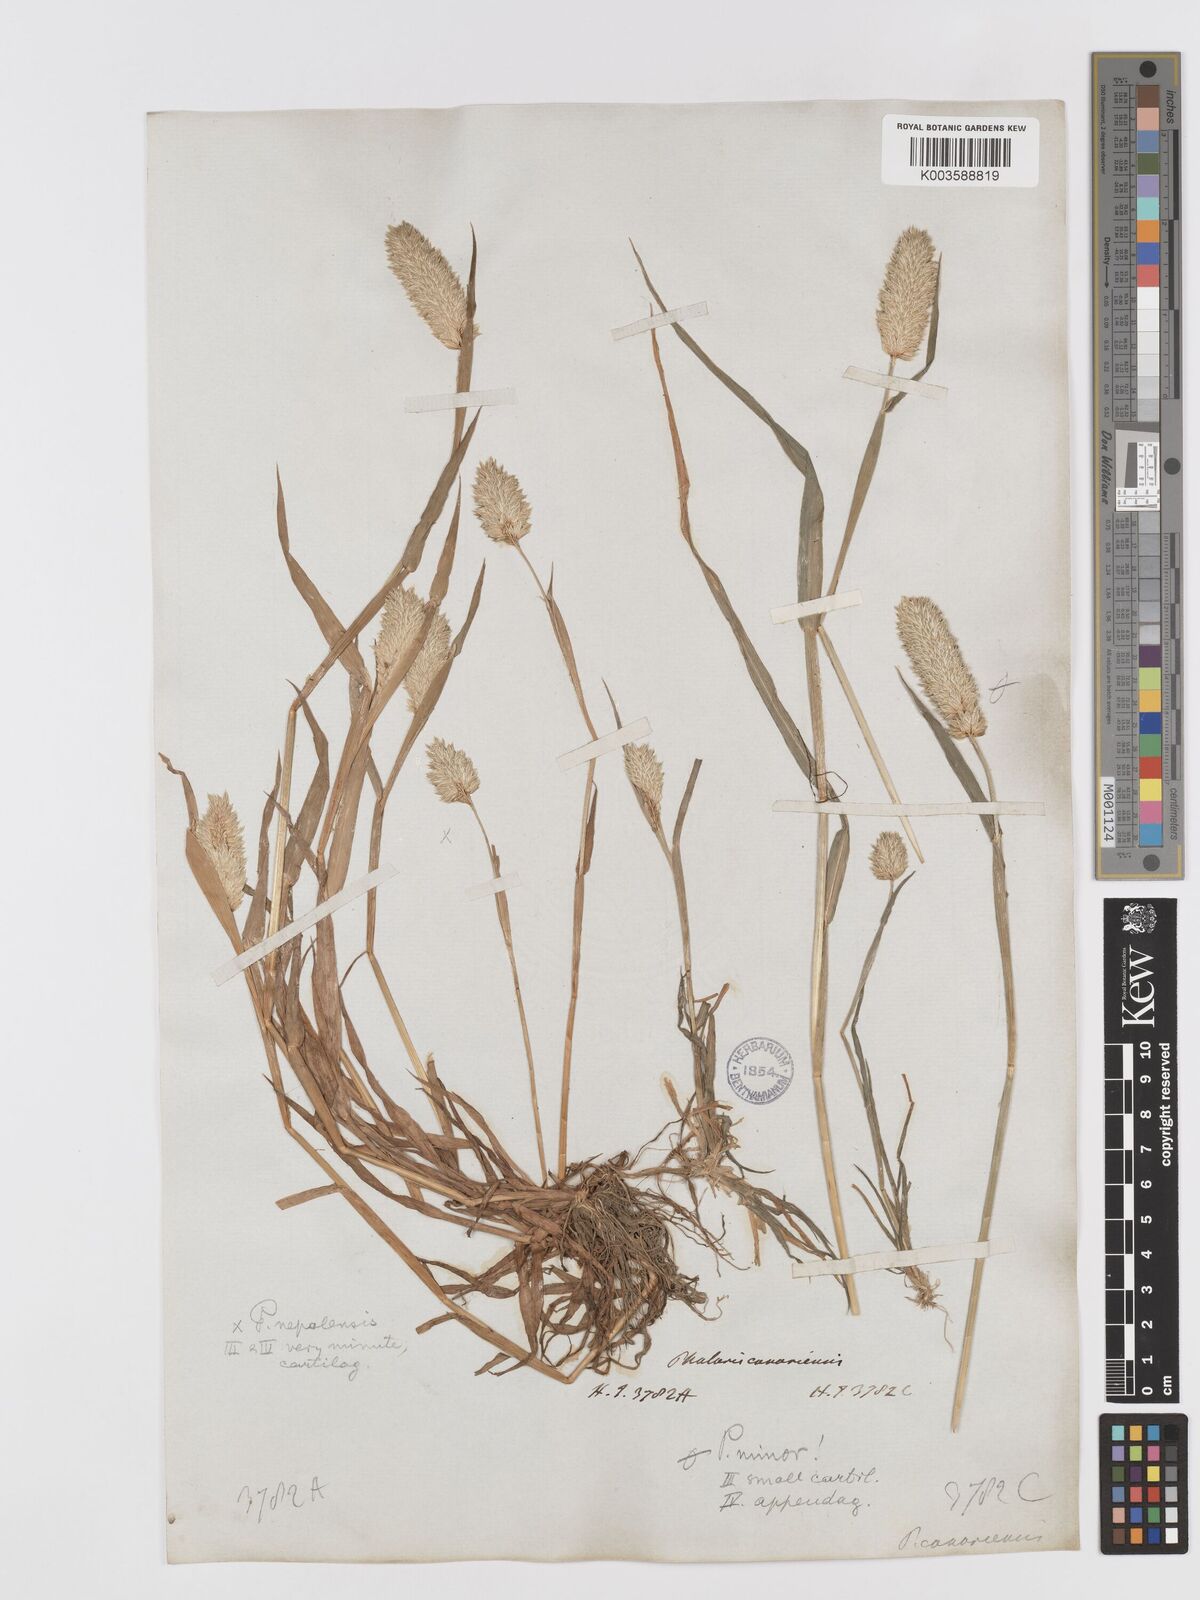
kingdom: Plantae
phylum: Tracheophyta
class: Liliopsida
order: Poales
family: Poaceae
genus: Phalaris
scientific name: Phalaris minor
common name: Littleseed canarygrass
